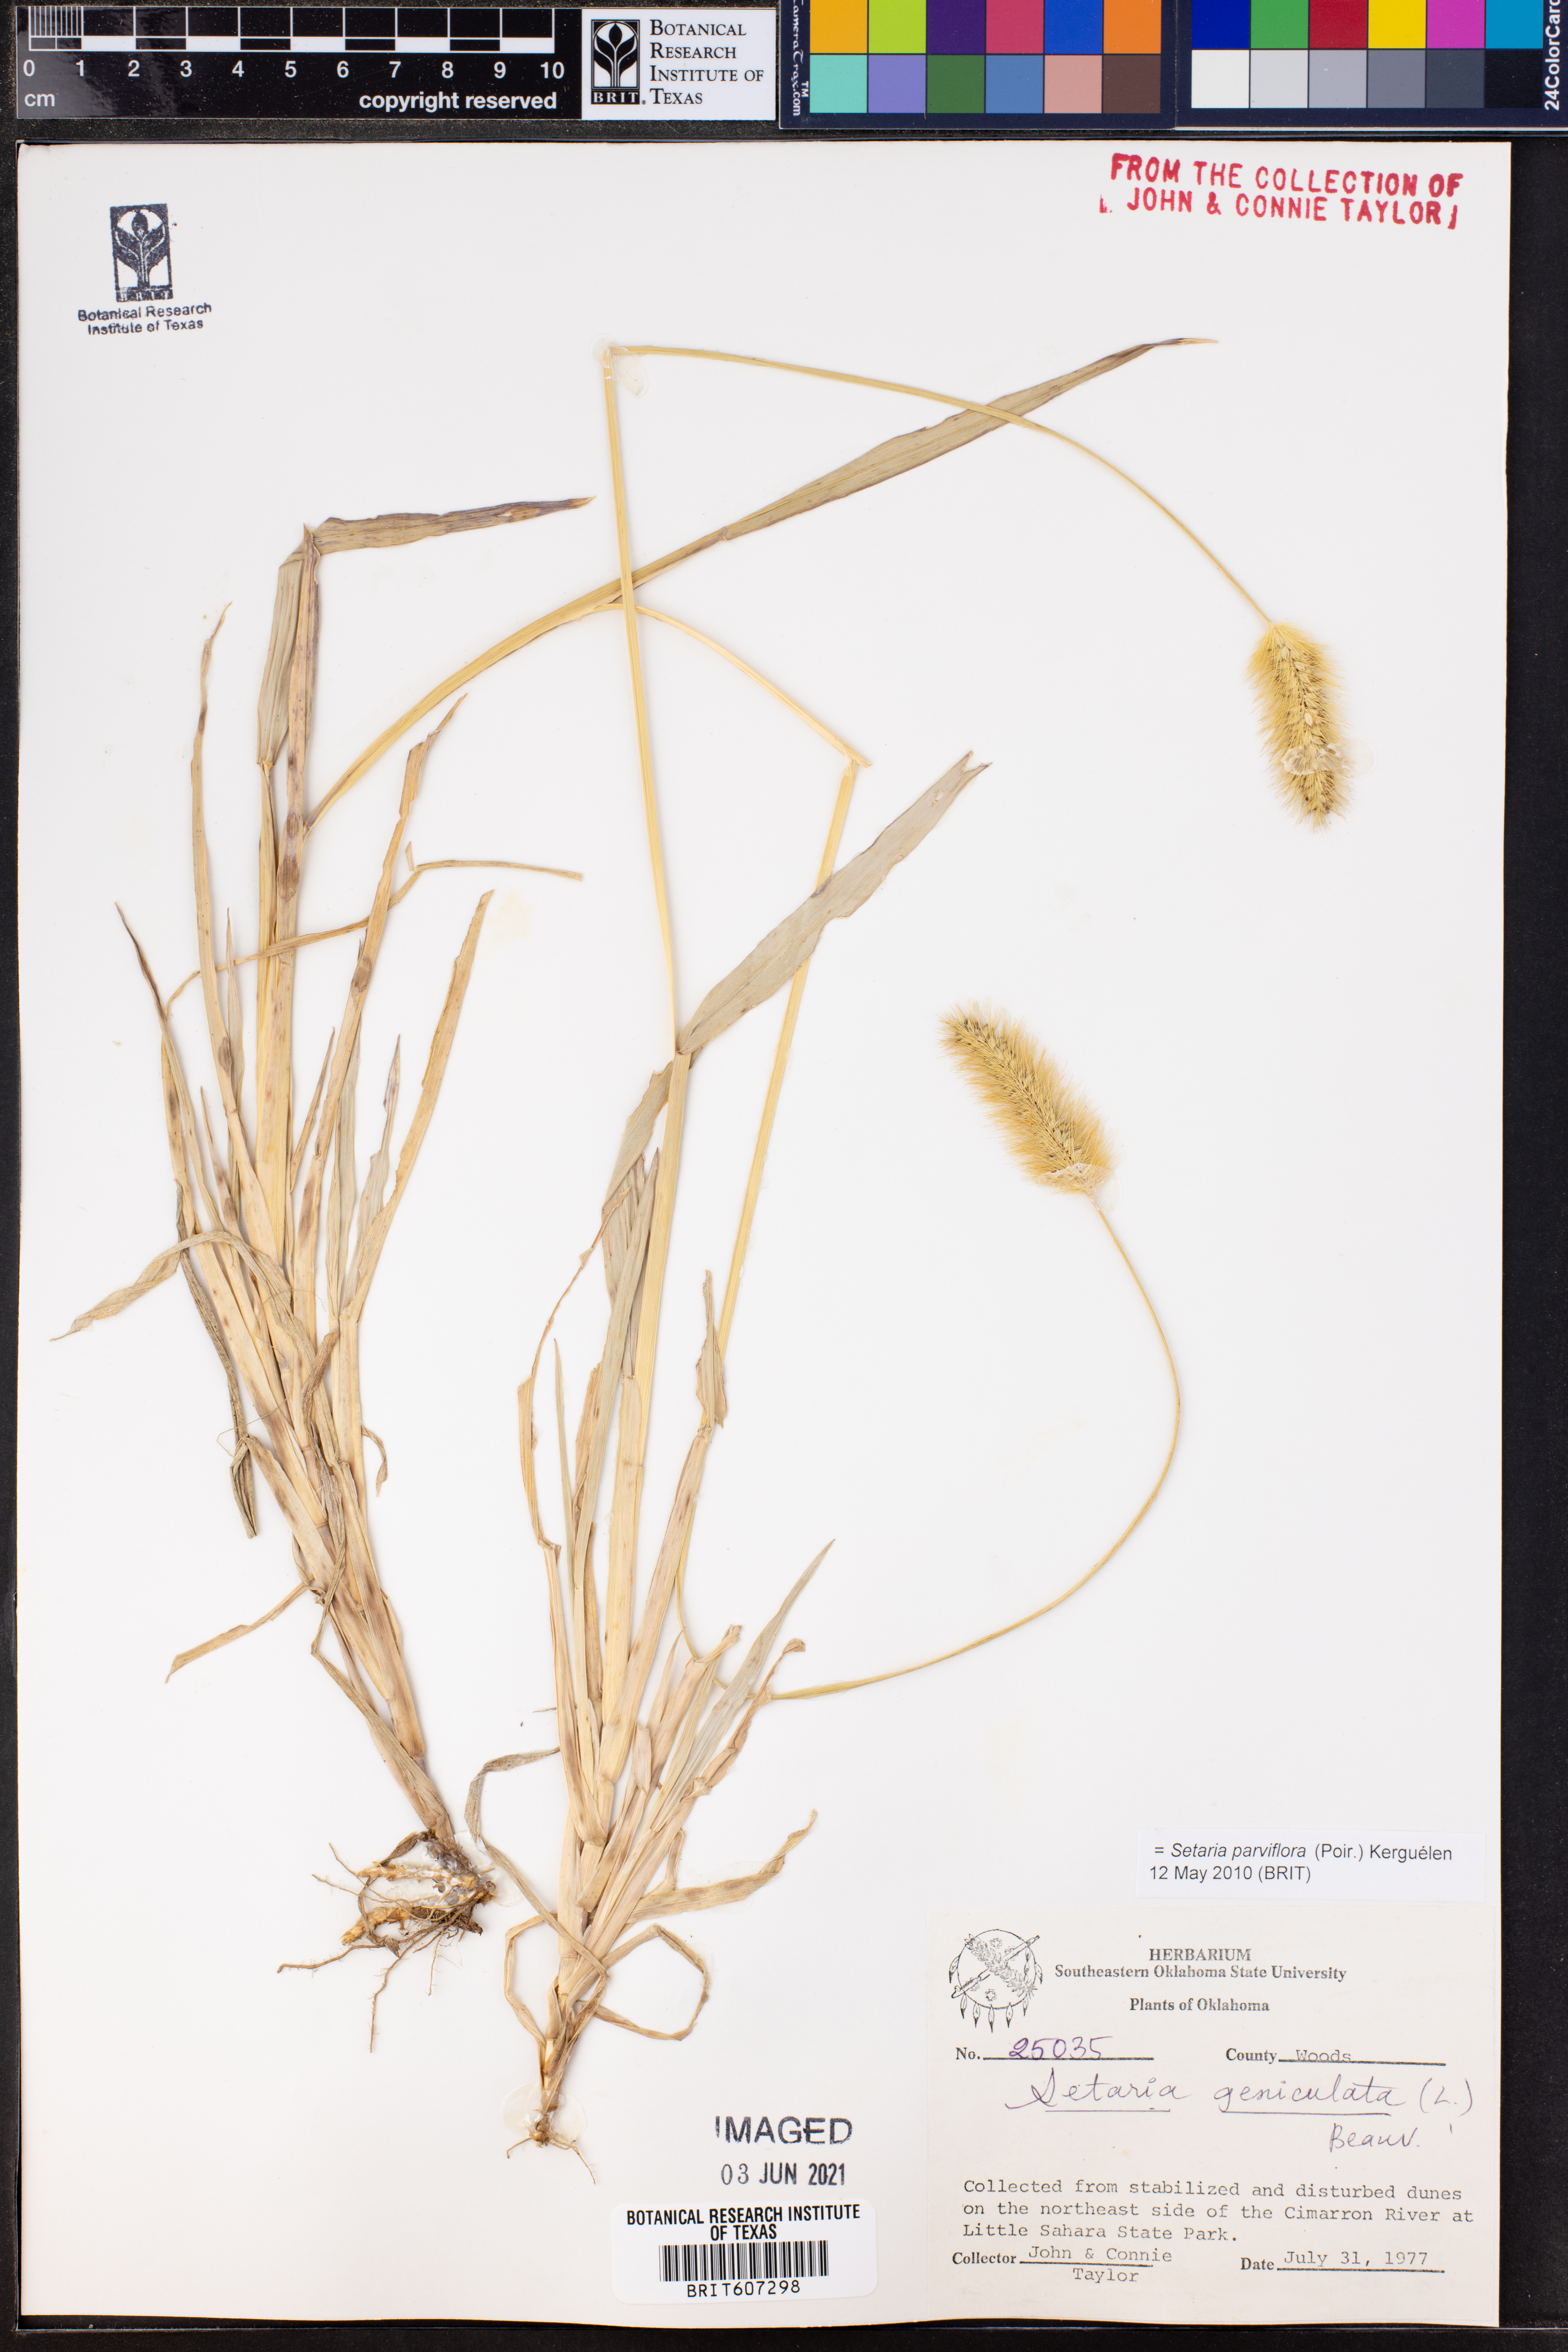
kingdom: Plantae
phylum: Tracheophyta
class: Liliopsida
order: Poales
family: Poaceae
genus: Setaria
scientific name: Setaria parviflora
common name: Knotroot bristle-grass
